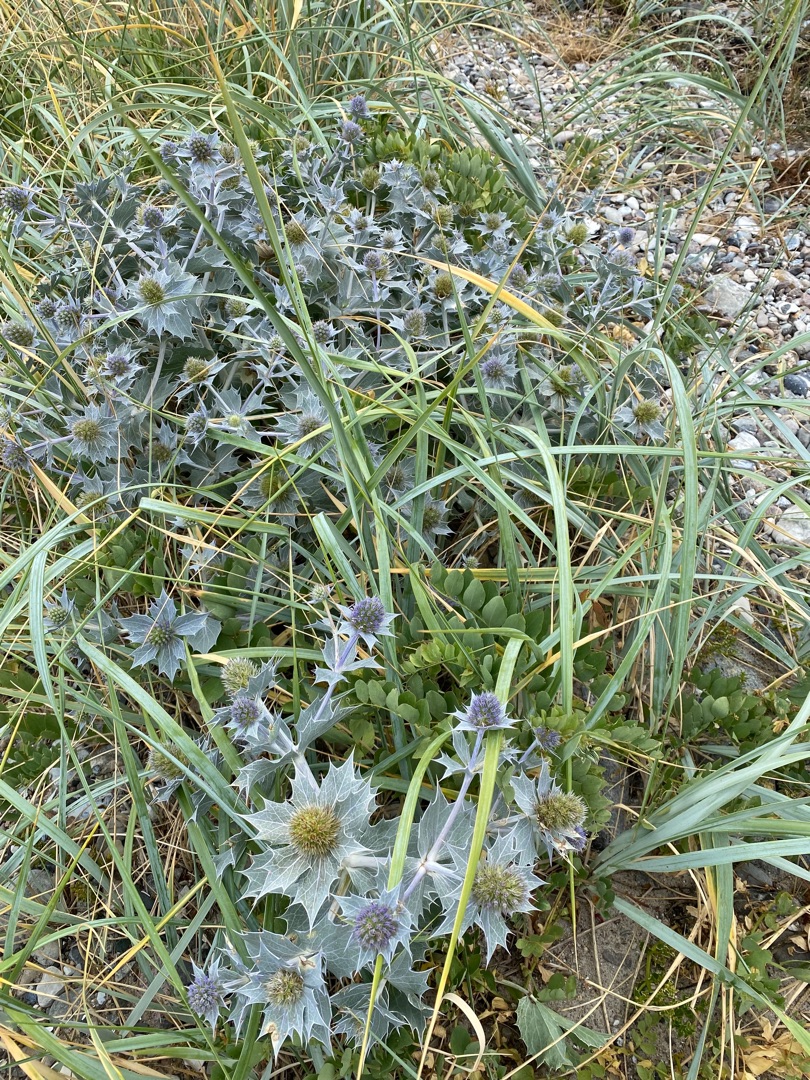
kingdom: Plantae
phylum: Tracheophyta
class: Magnoliopsida
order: Apiales
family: Apiaceae
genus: Eryngium
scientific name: Eryngium maritimum
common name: Strand-mandstro
